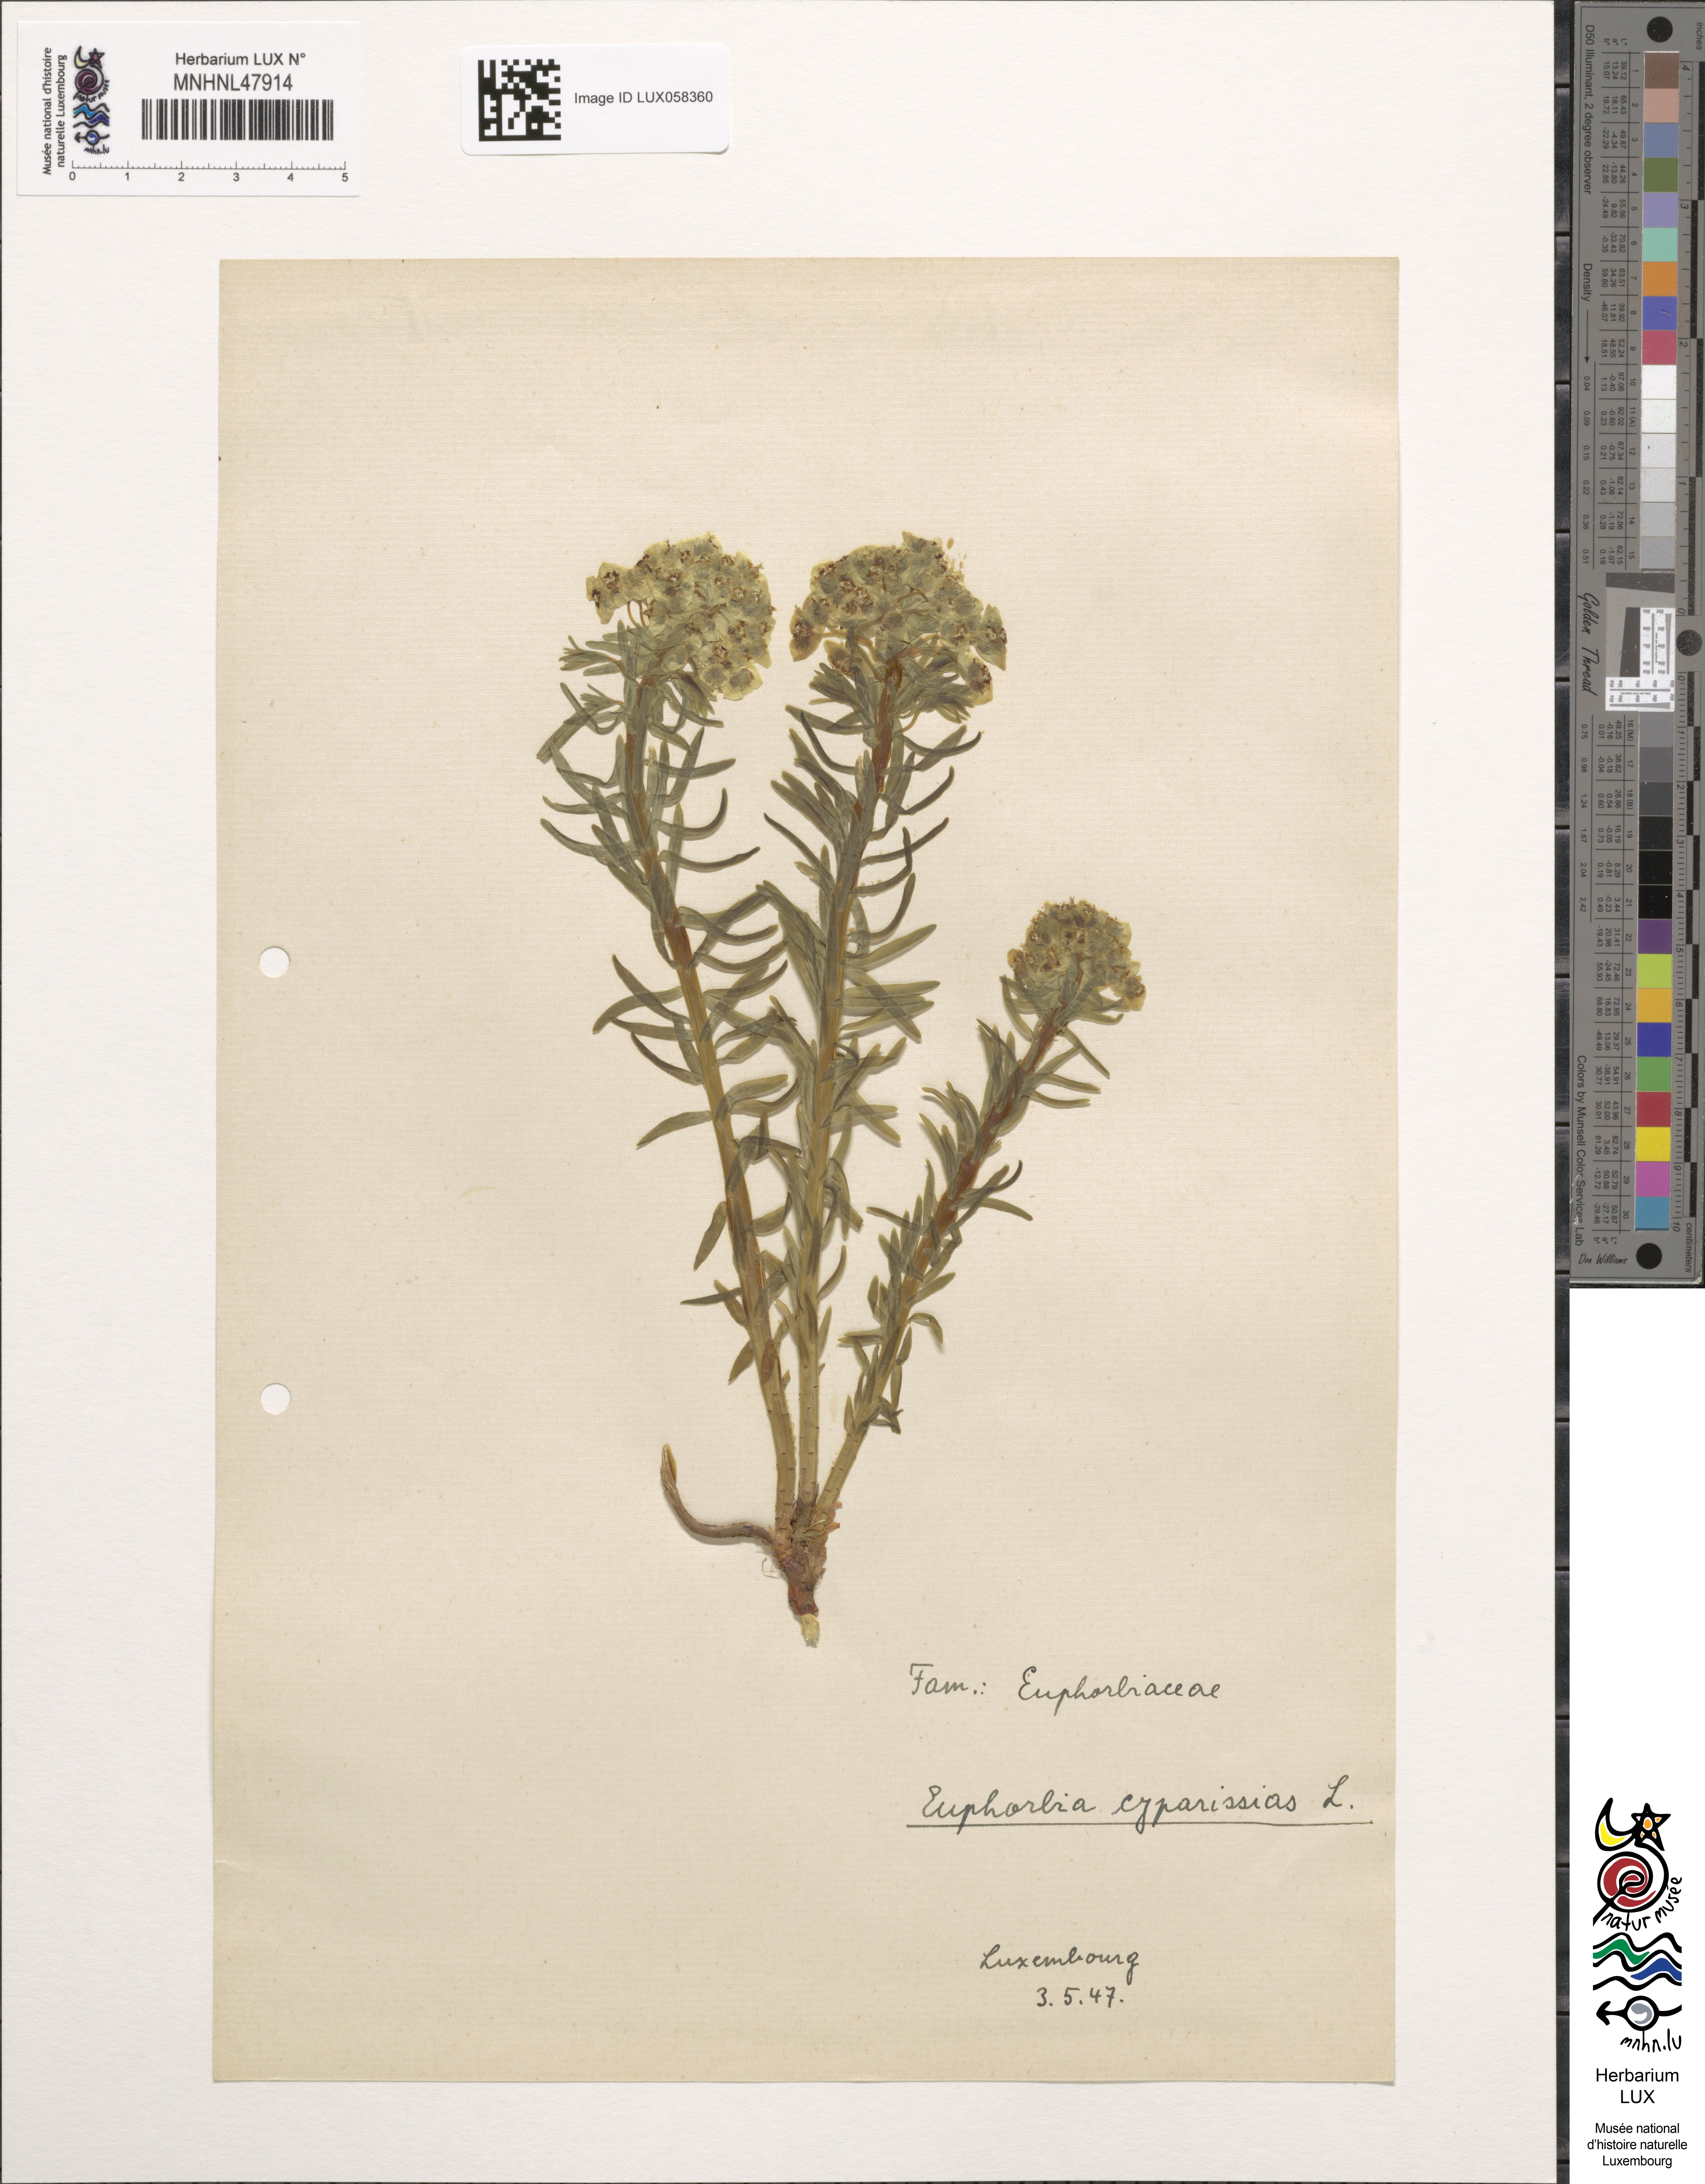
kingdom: Plantae
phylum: Tracheophyta
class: Magnoliopsida
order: Malpighiales
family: Euphorbiaceae
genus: Euphorbia
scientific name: Euphorbia cyparissias
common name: Cypress spurge
